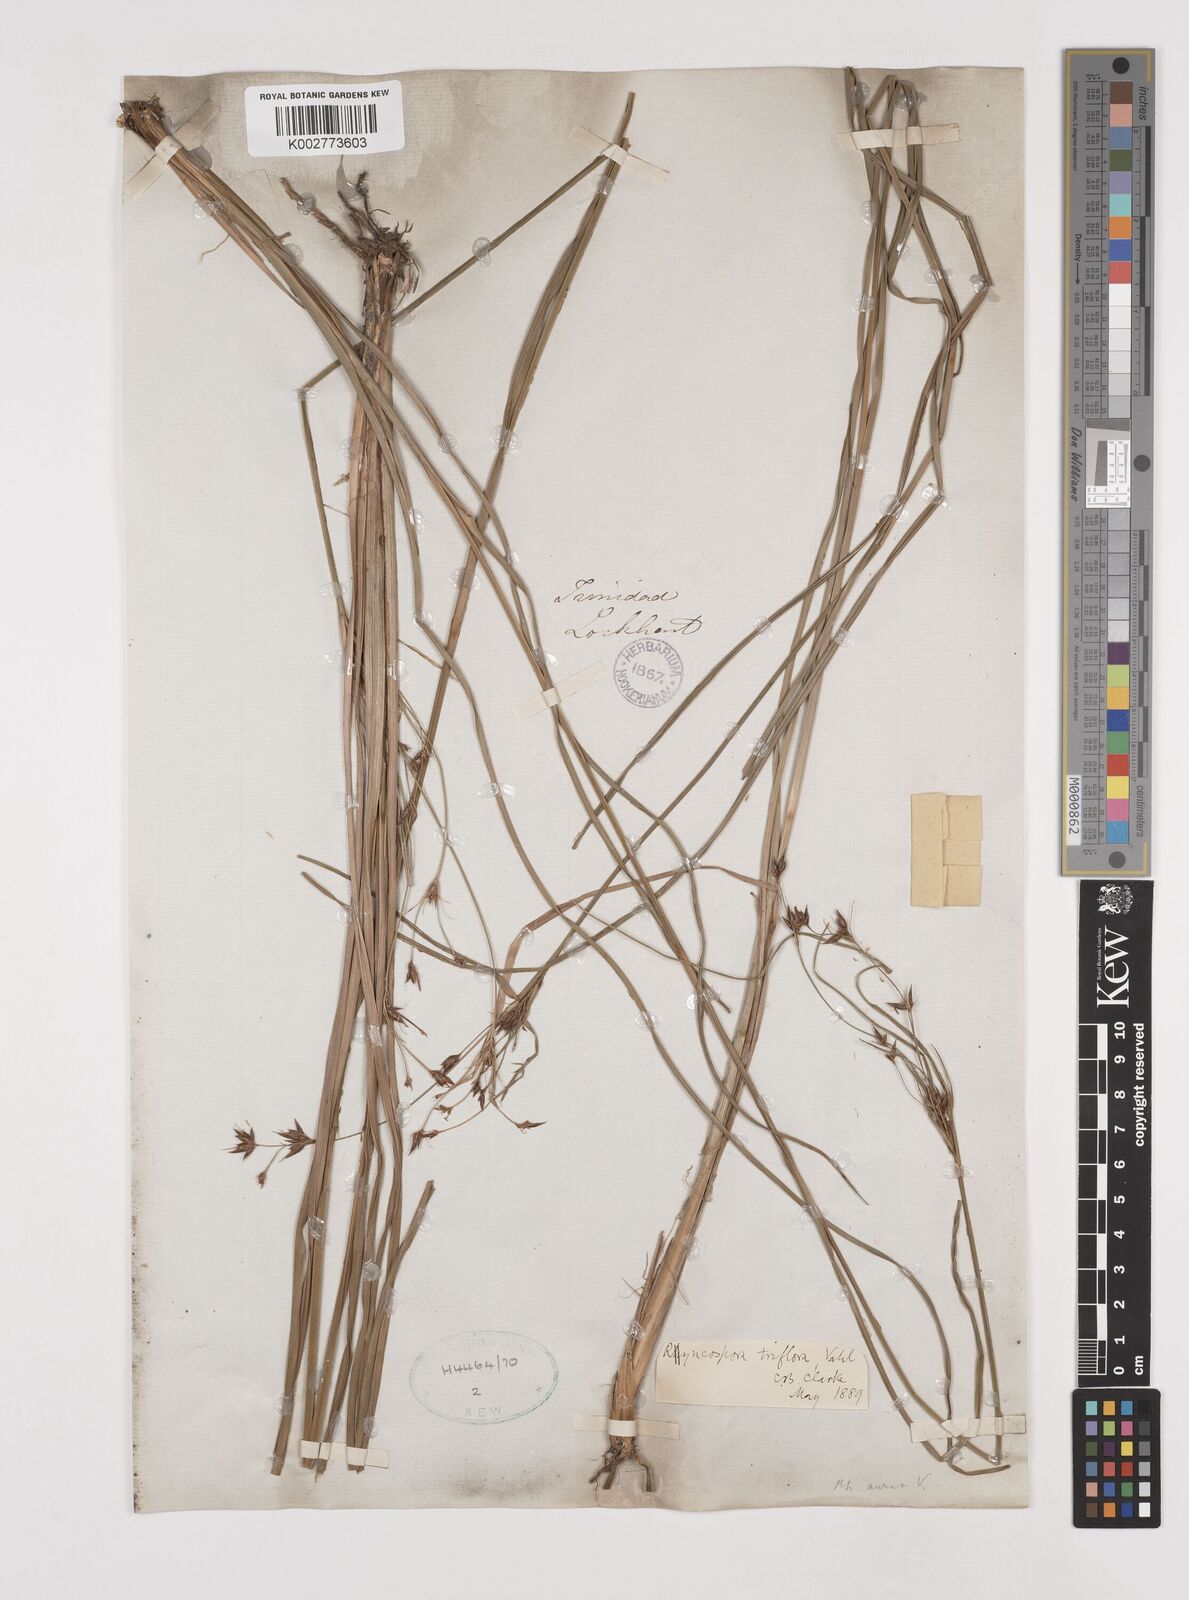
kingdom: Plantae
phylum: Tracheophyta
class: Liliopsida
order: Poales
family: Cyperaceae
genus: Rhynchospora
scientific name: Rhynchospora triflora
